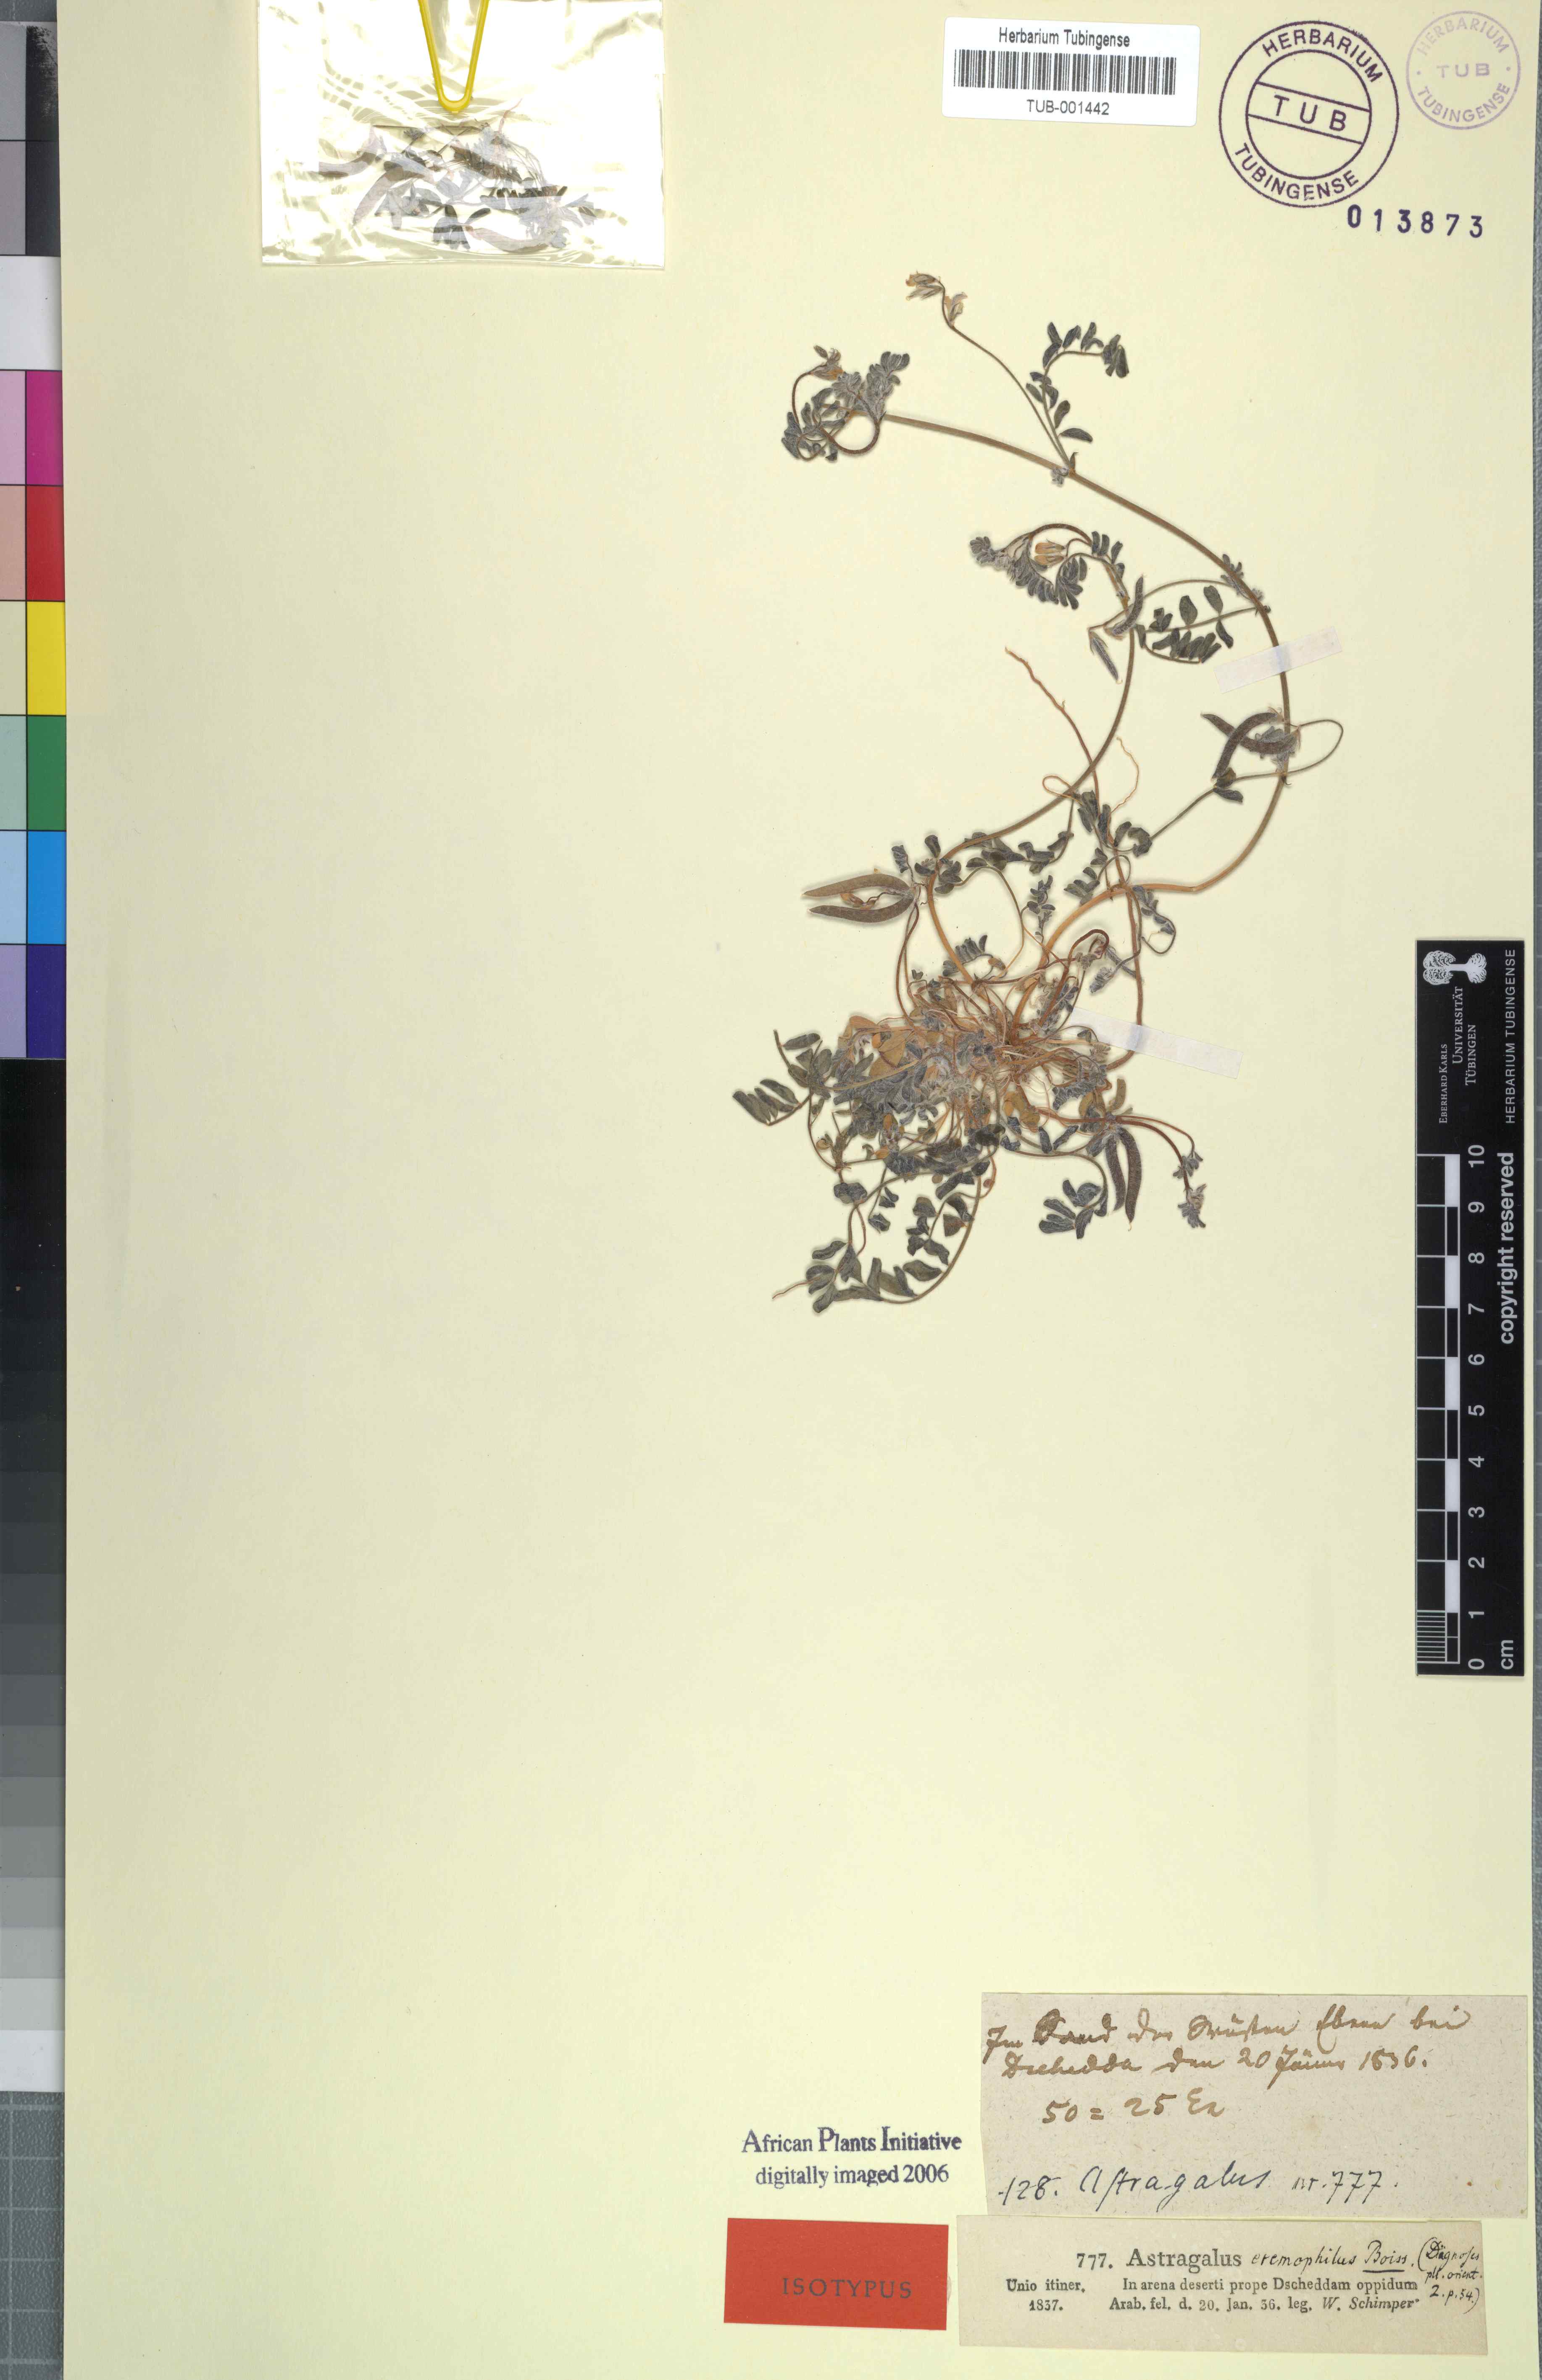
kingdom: Plantae
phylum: Tracheophyta
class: Magnoliopsida
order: Fabales
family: Fabaceae
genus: Astragalus
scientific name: Astragalus eremophilus
